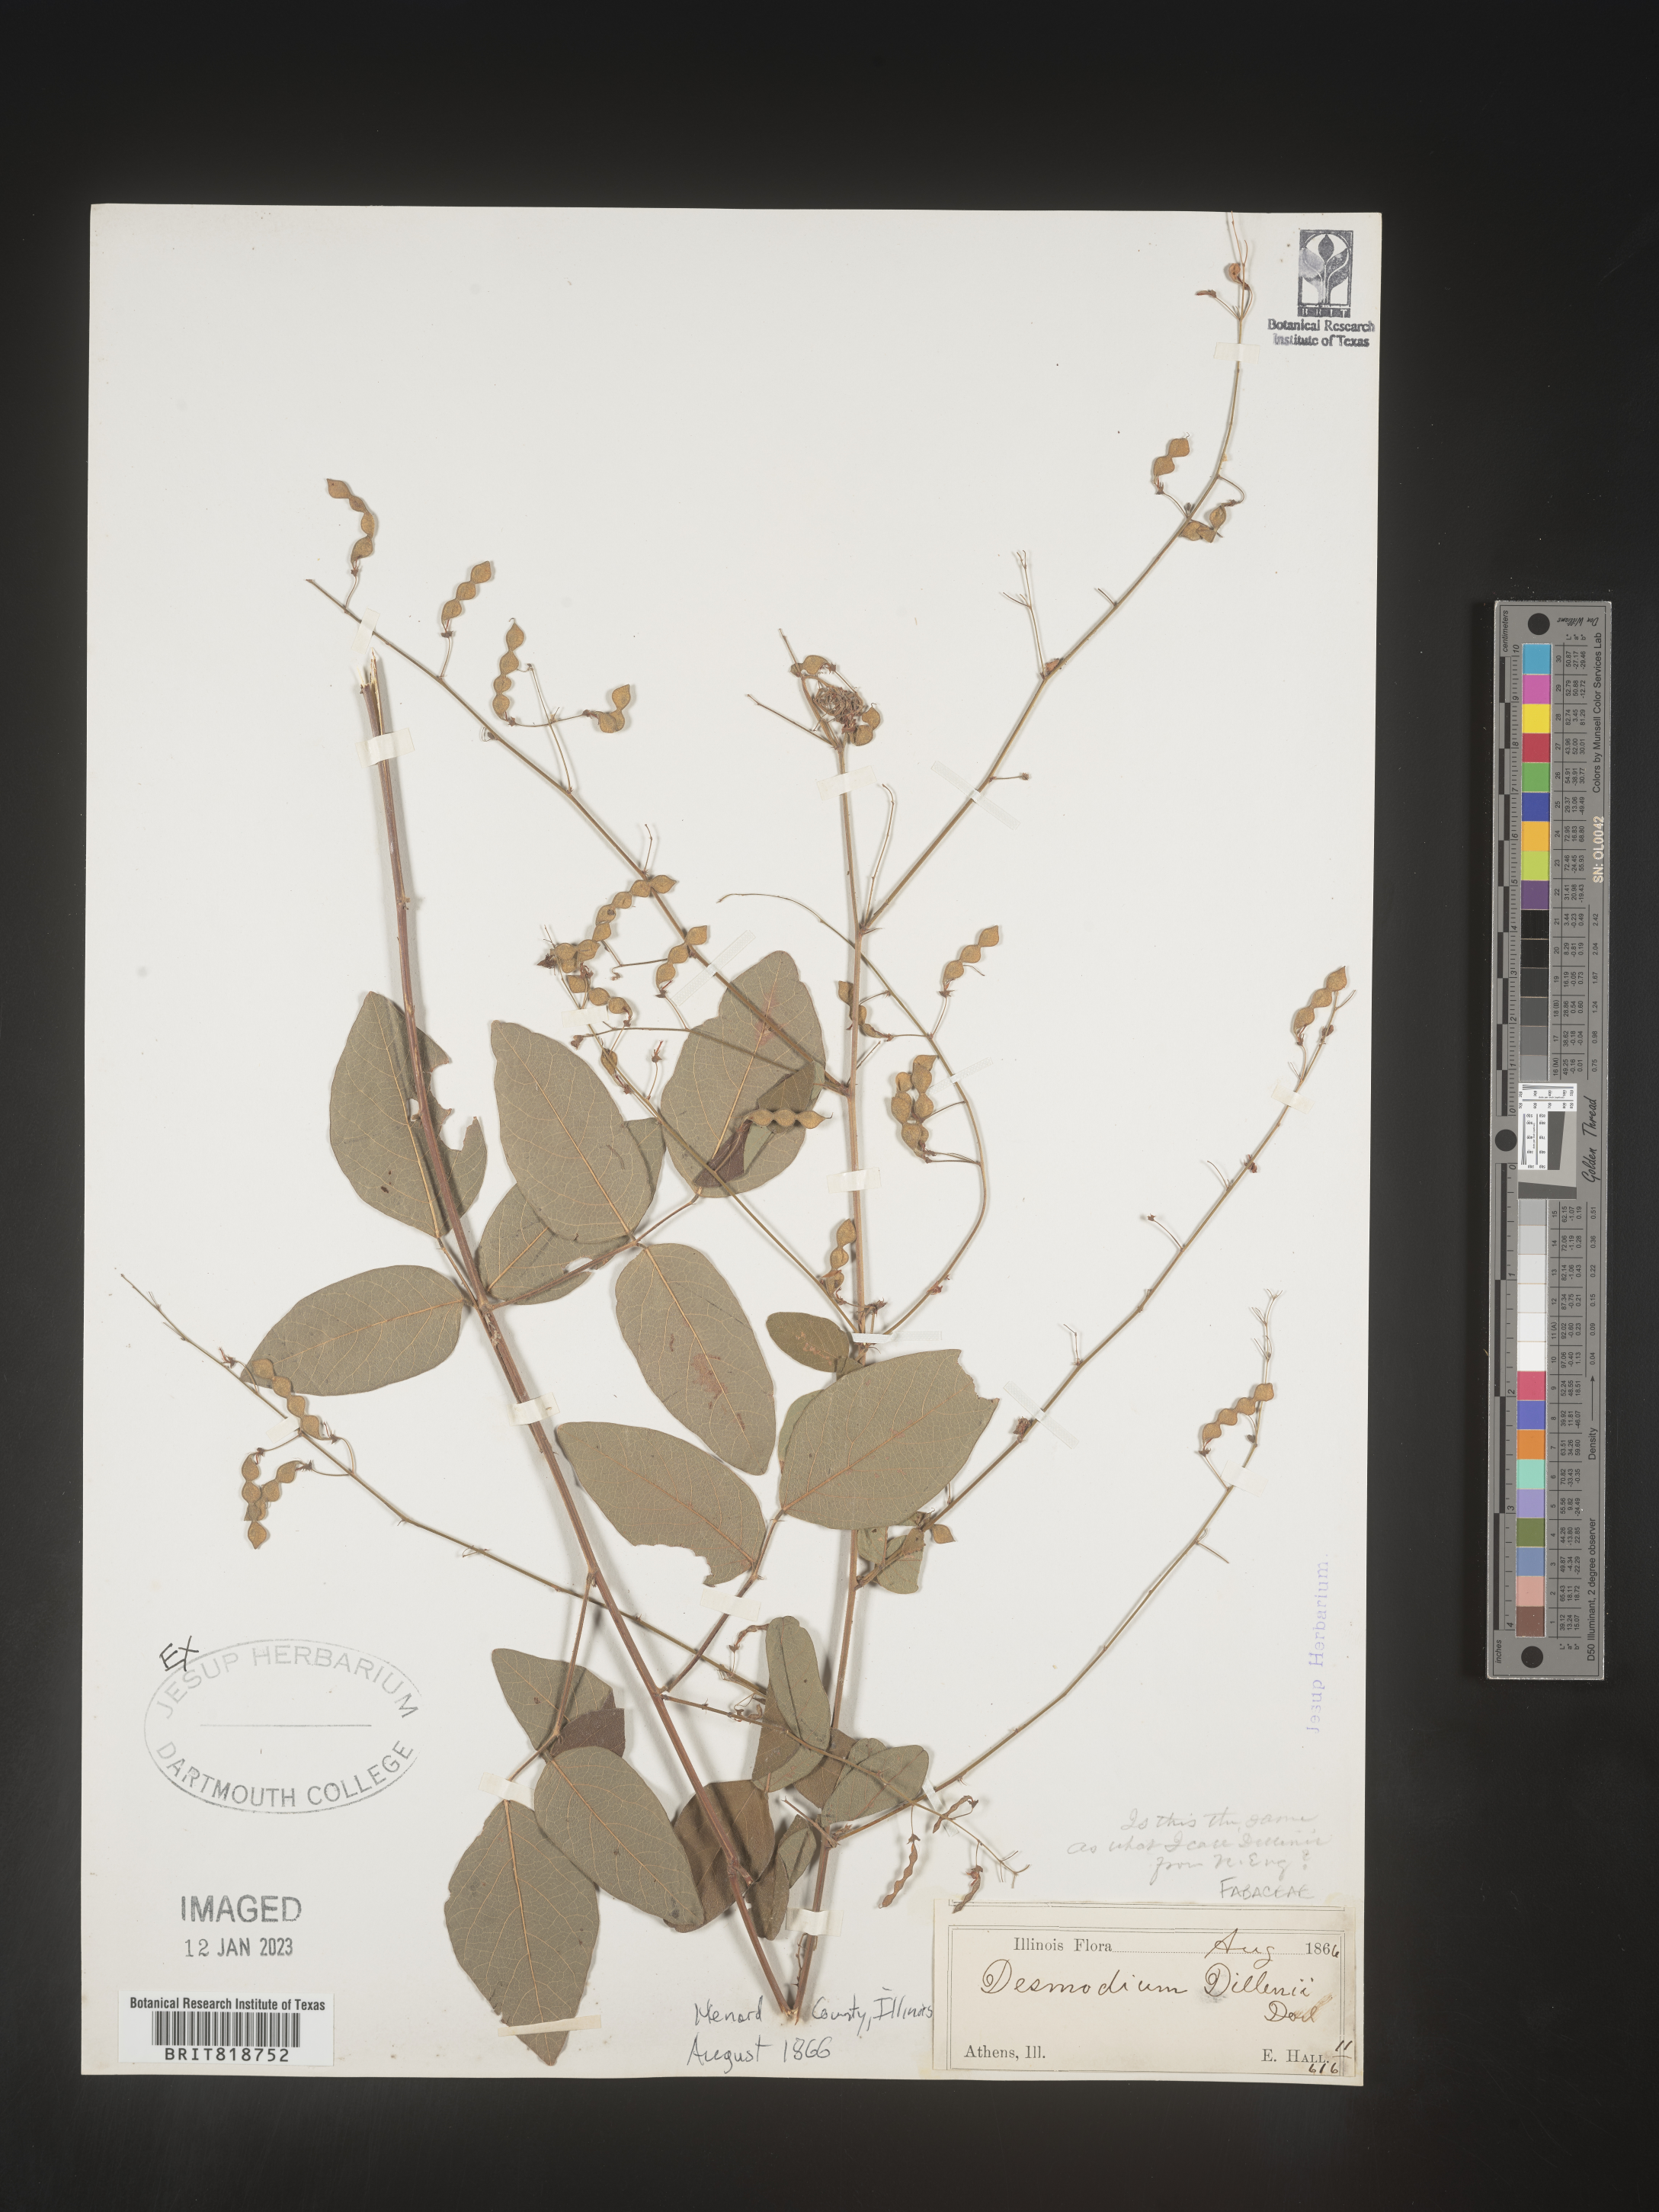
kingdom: Plantae
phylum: Tracheophyta
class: Magnoliopsida
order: Fabales
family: Fabaceae
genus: Desmodium
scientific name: Desmodium perplexum
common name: Perplexed tick trefoil
